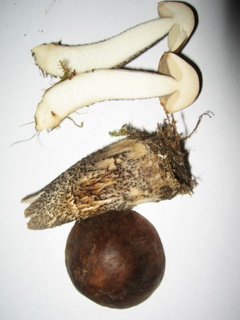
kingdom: Fungi
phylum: Basidiomycota
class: Agaricomycetes
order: Boletales
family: Boletaceae
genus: Leccinum
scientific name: Leccinum scabrum
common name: brun skælrørhat
